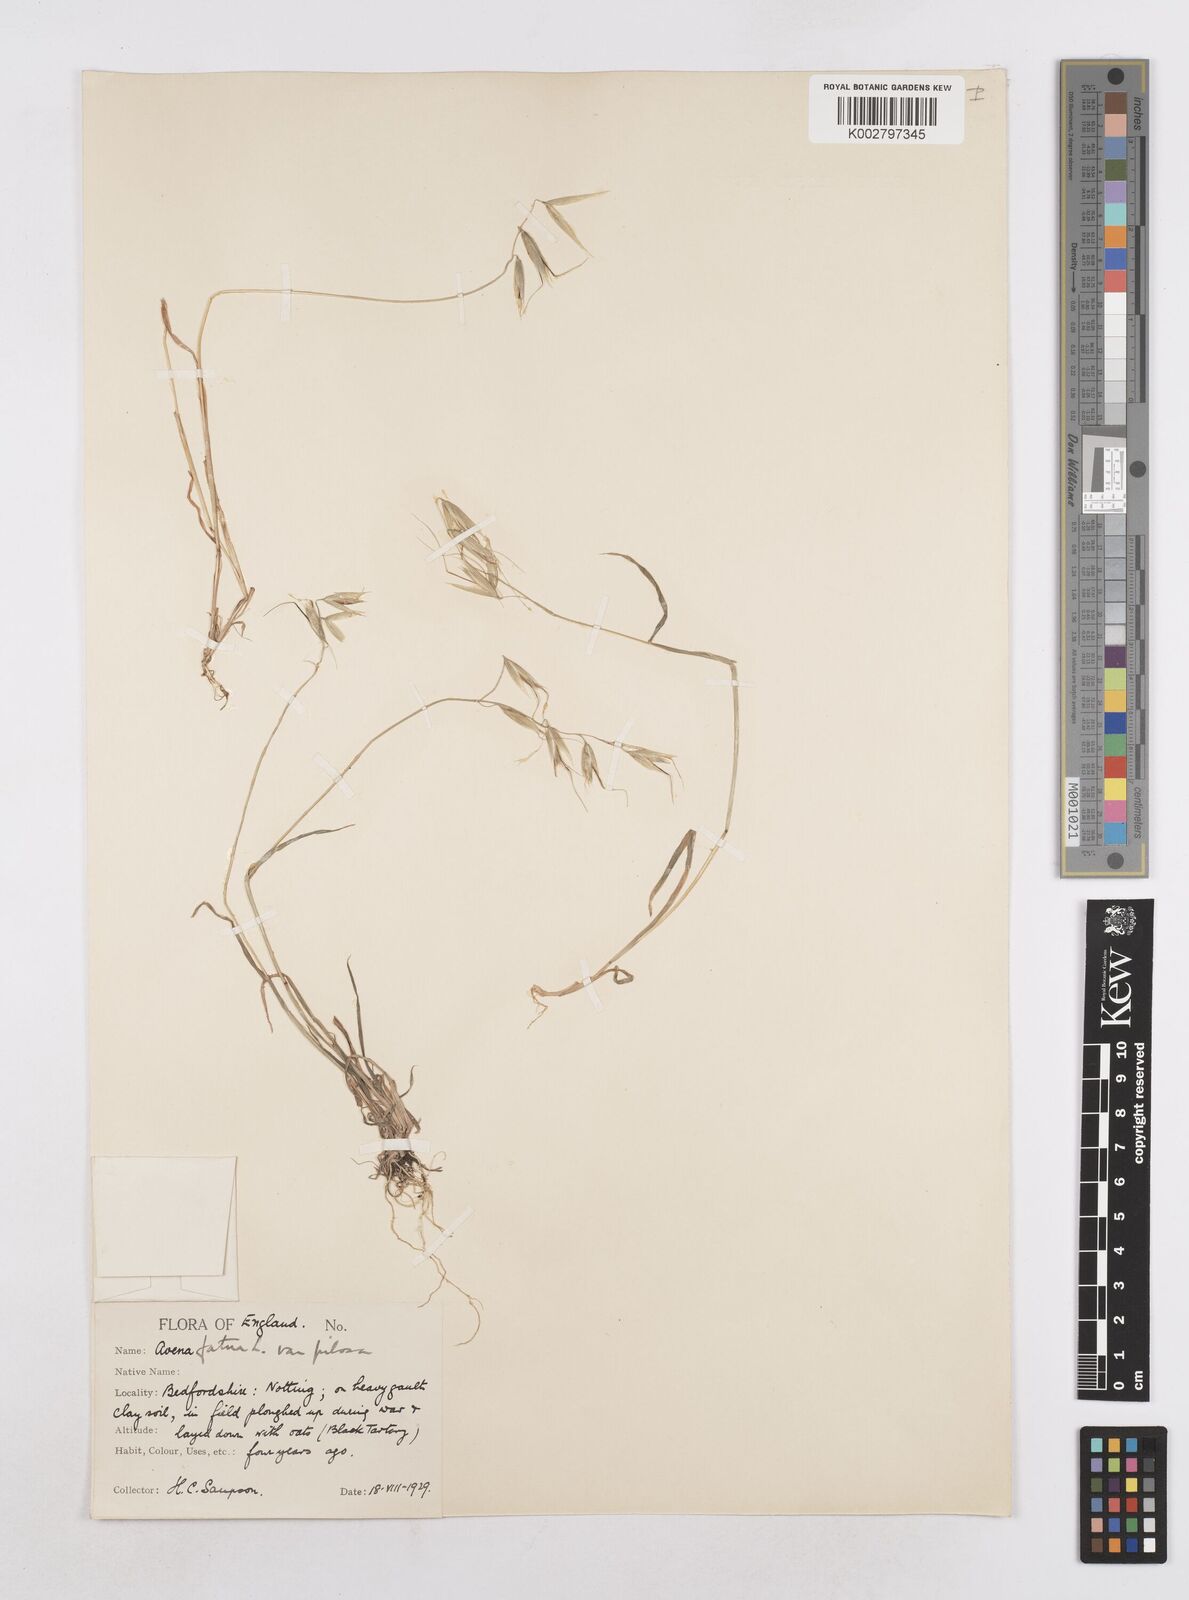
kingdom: Plantae
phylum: Tracheophyta
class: Liliopsida
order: Poales
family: Poaceae
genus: Avena
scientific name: Avena fatua
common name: Wild oat
